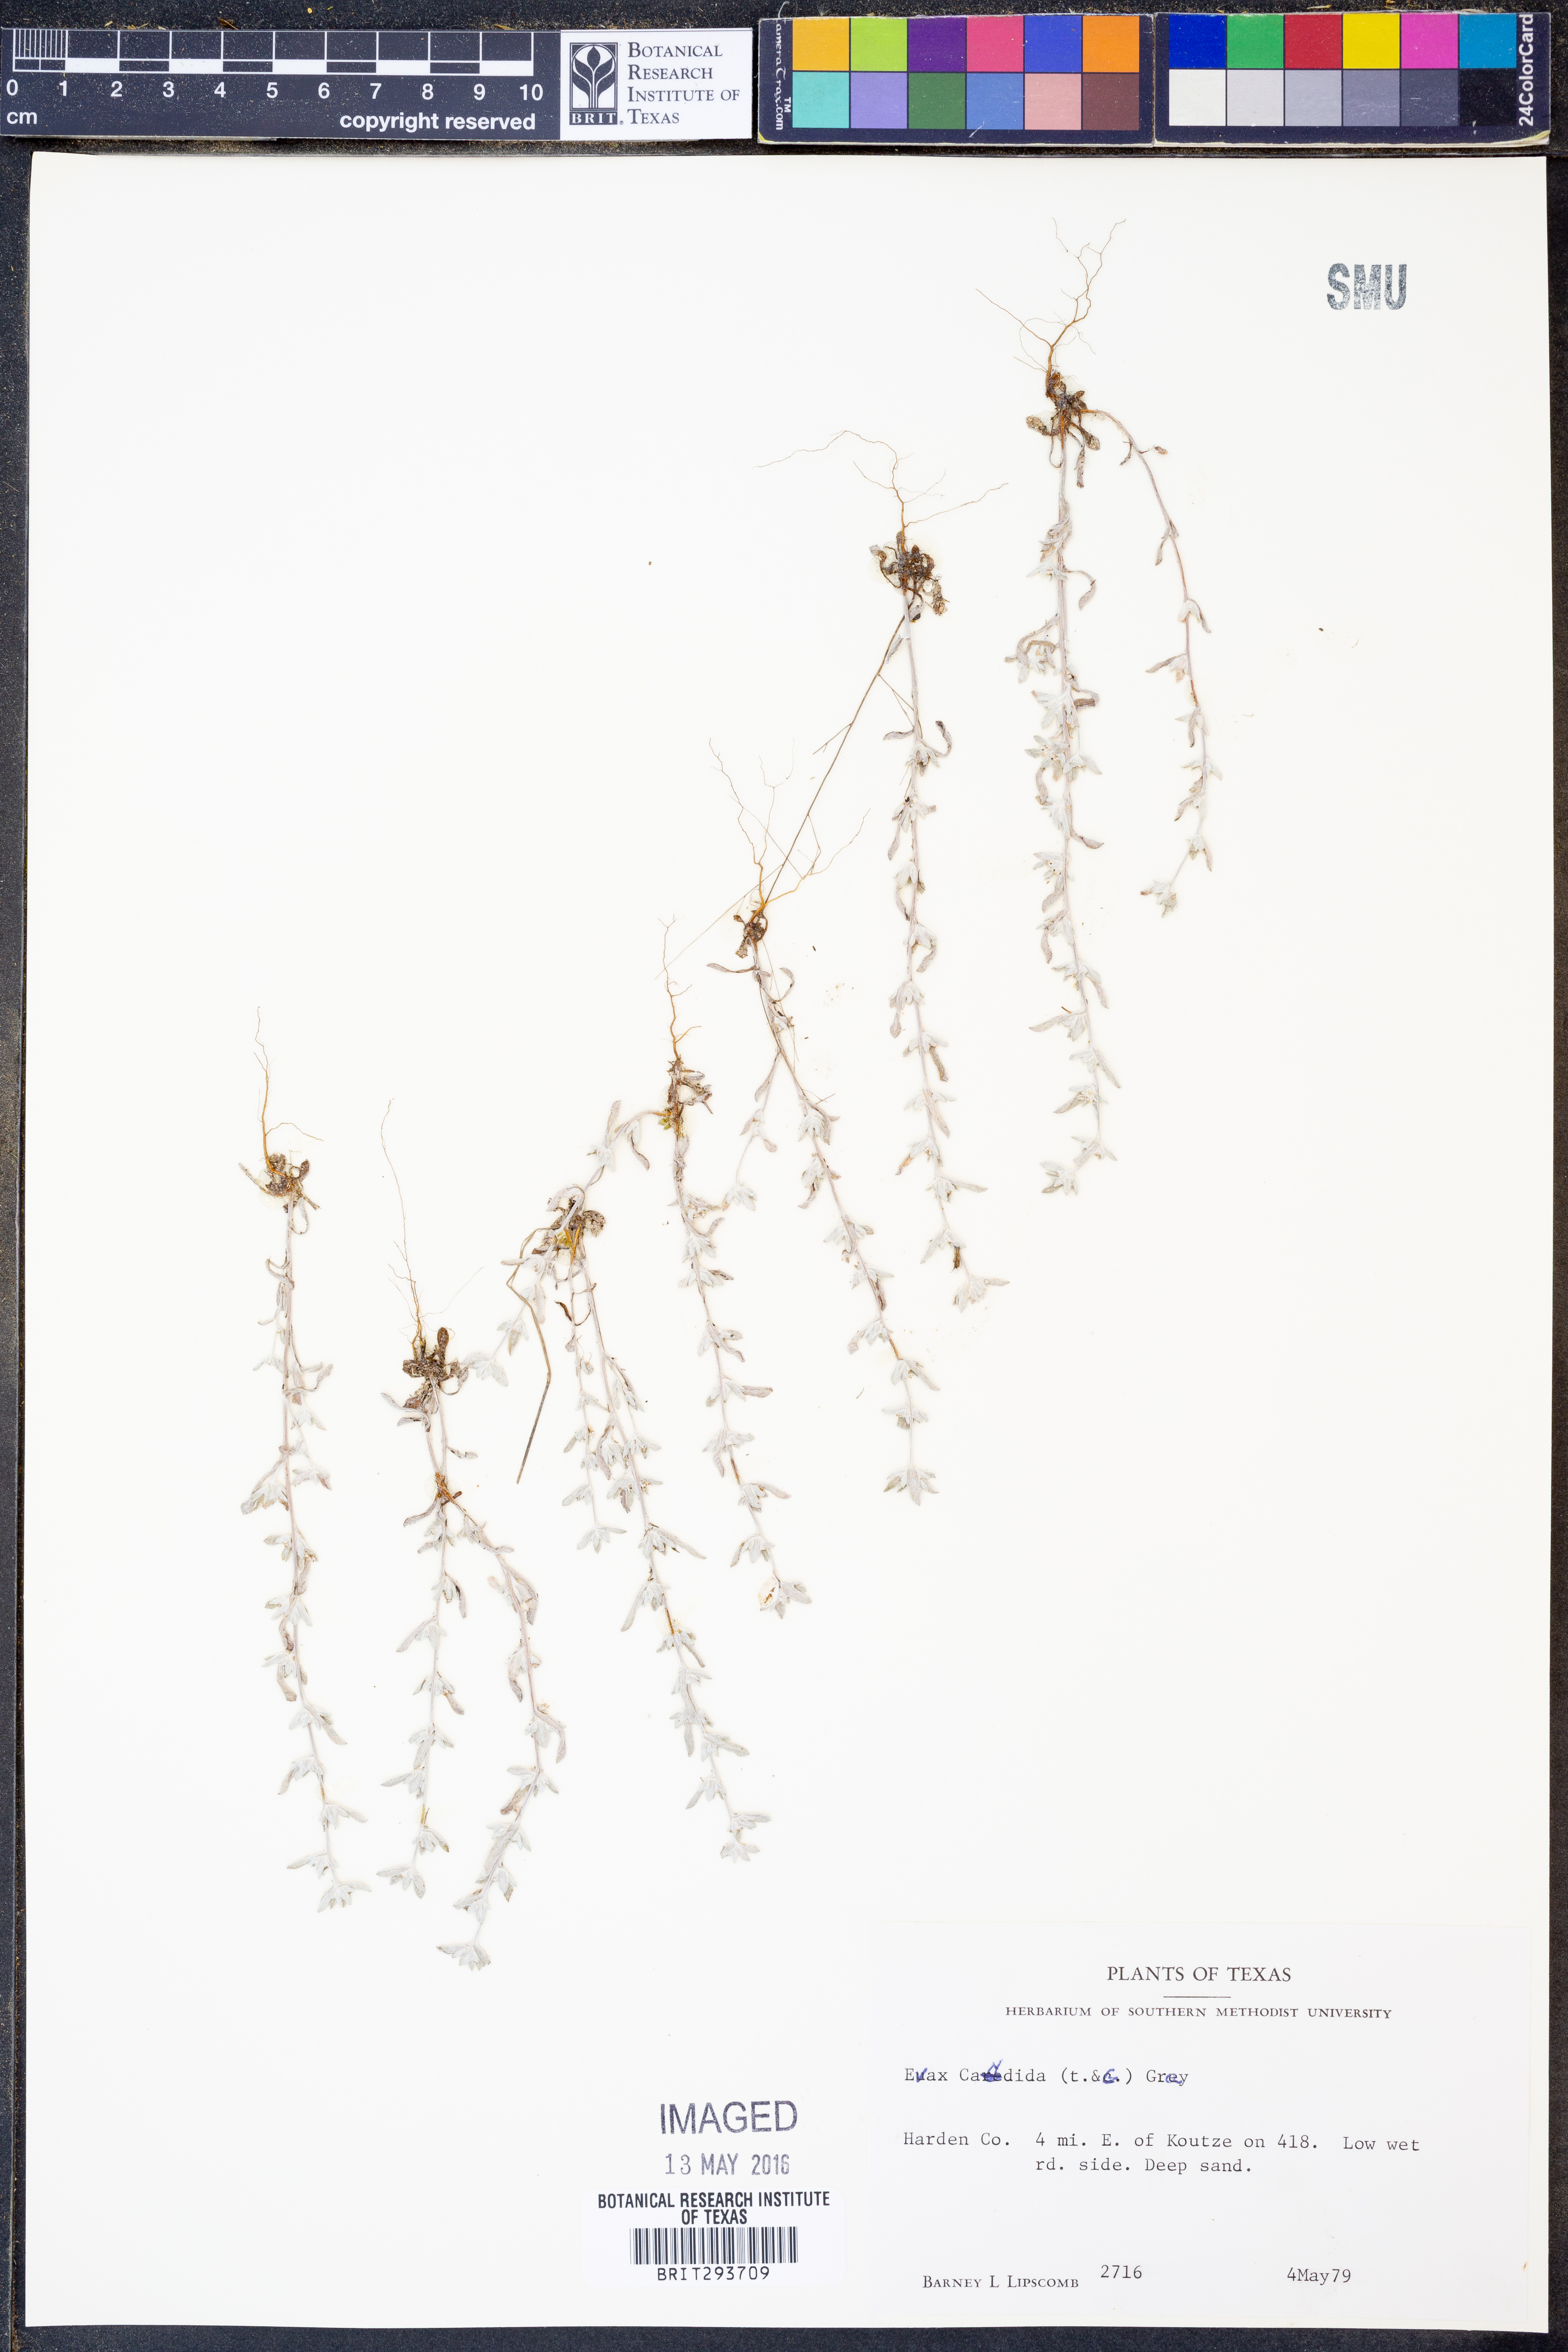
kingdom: Plantae
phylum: Tracheophyta
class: Magnoliopsida
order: Asterales
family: Asteraceae
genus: Diaperia
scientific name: Diaperia candida
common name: Silver rabbit-tobacco
